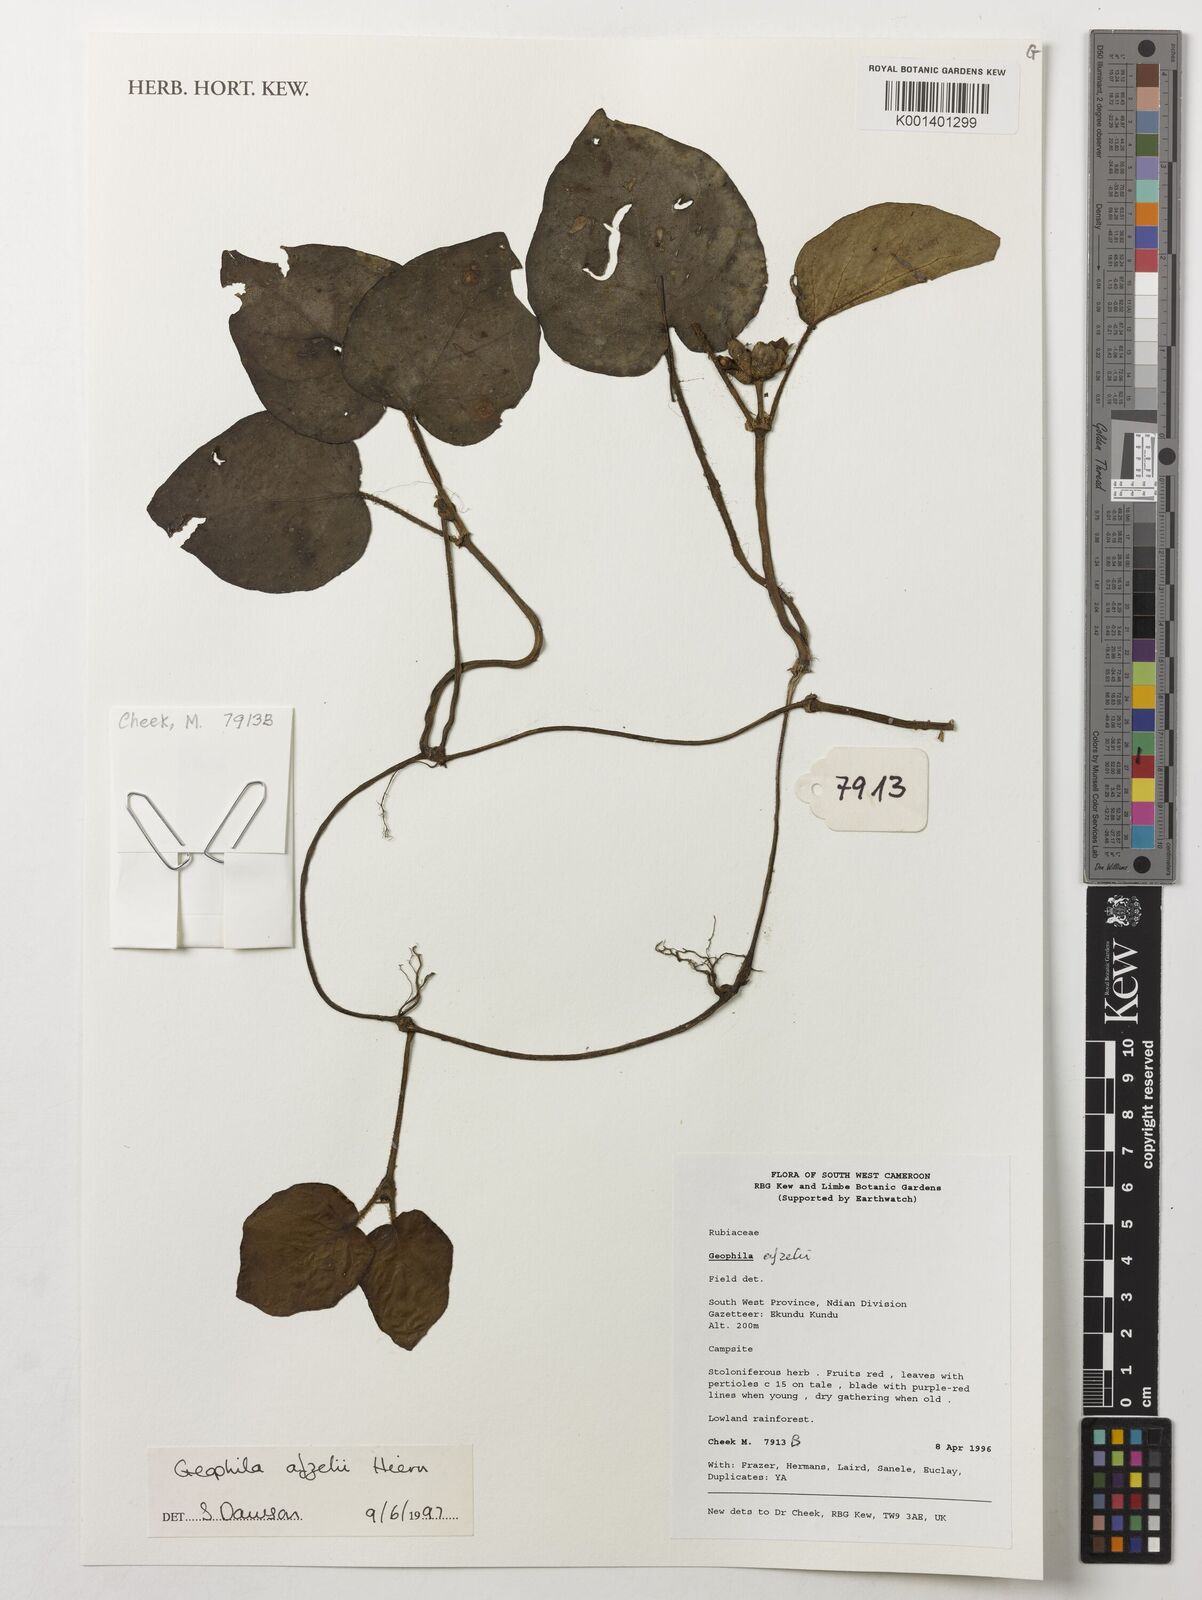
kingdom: Plantae
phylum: Tracheophyta
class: Magnoliopsida
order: Gentianales
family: Rubiaceae
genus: Geophila
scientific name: Geophila afzelii
